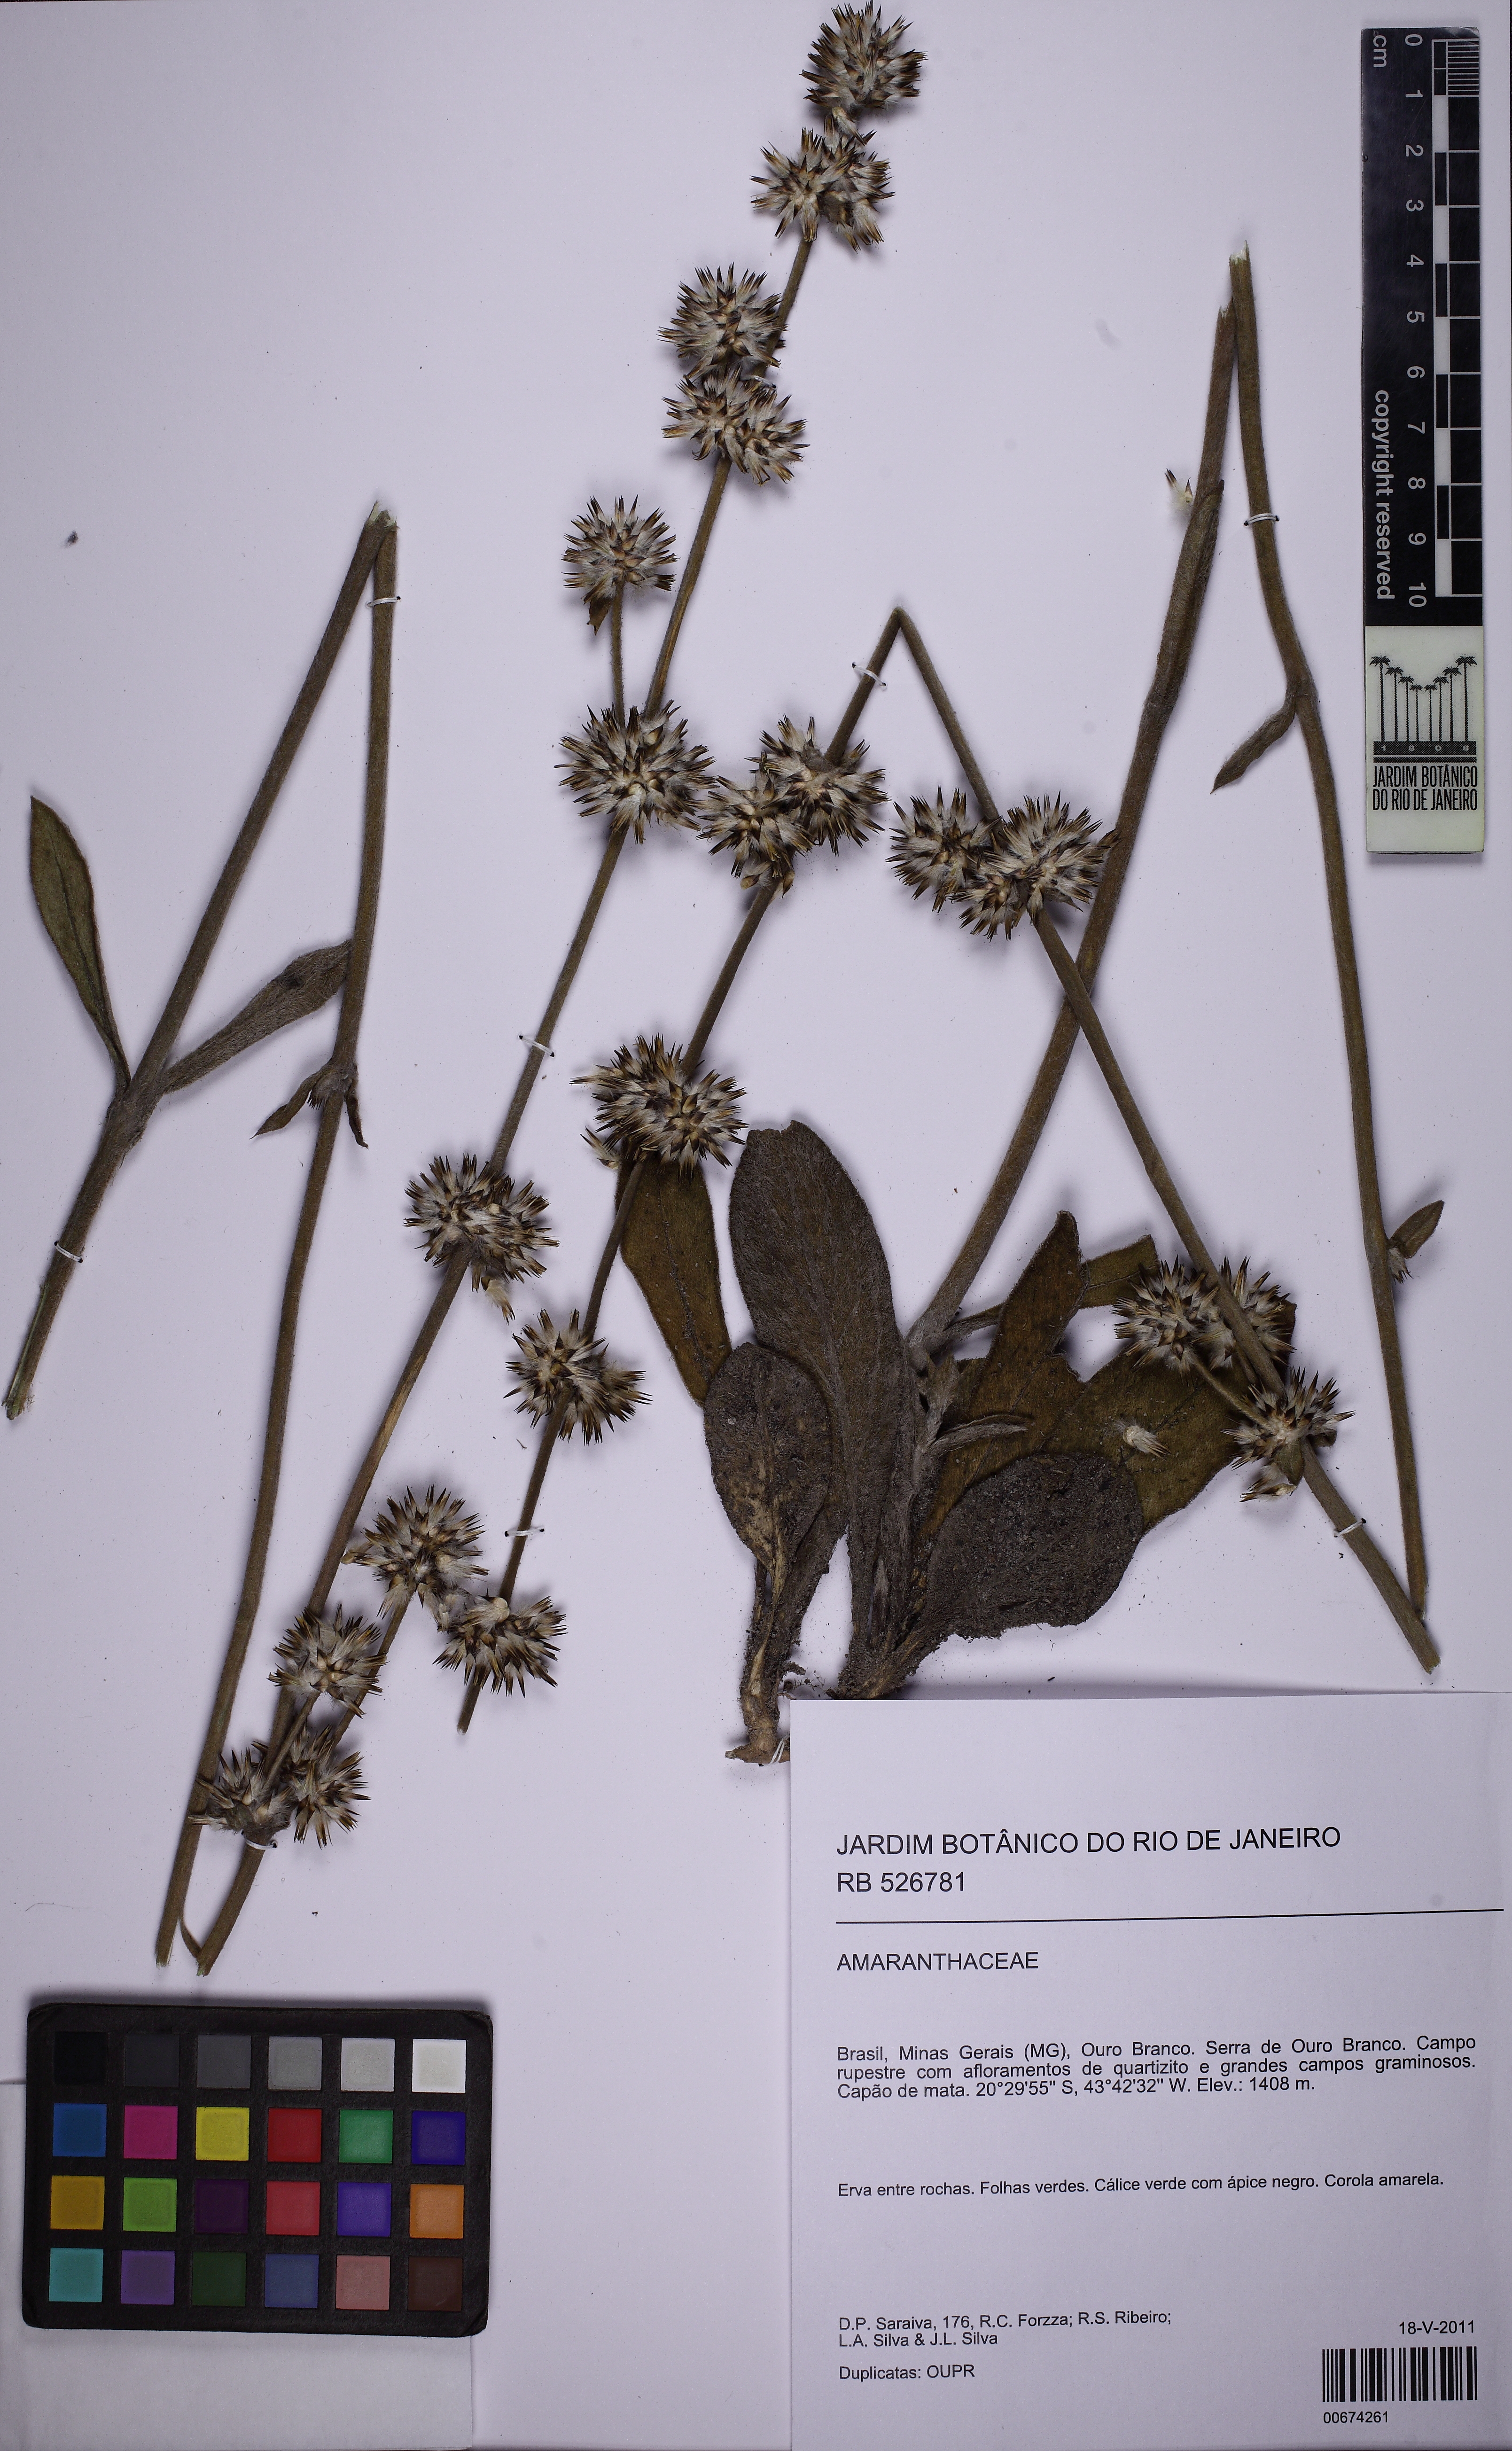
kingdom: Plantae
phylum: Tracheophyta
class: Magnoliopsida
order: Caryophyllales
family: Amaranthaceae
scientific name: Amaranthaceae
